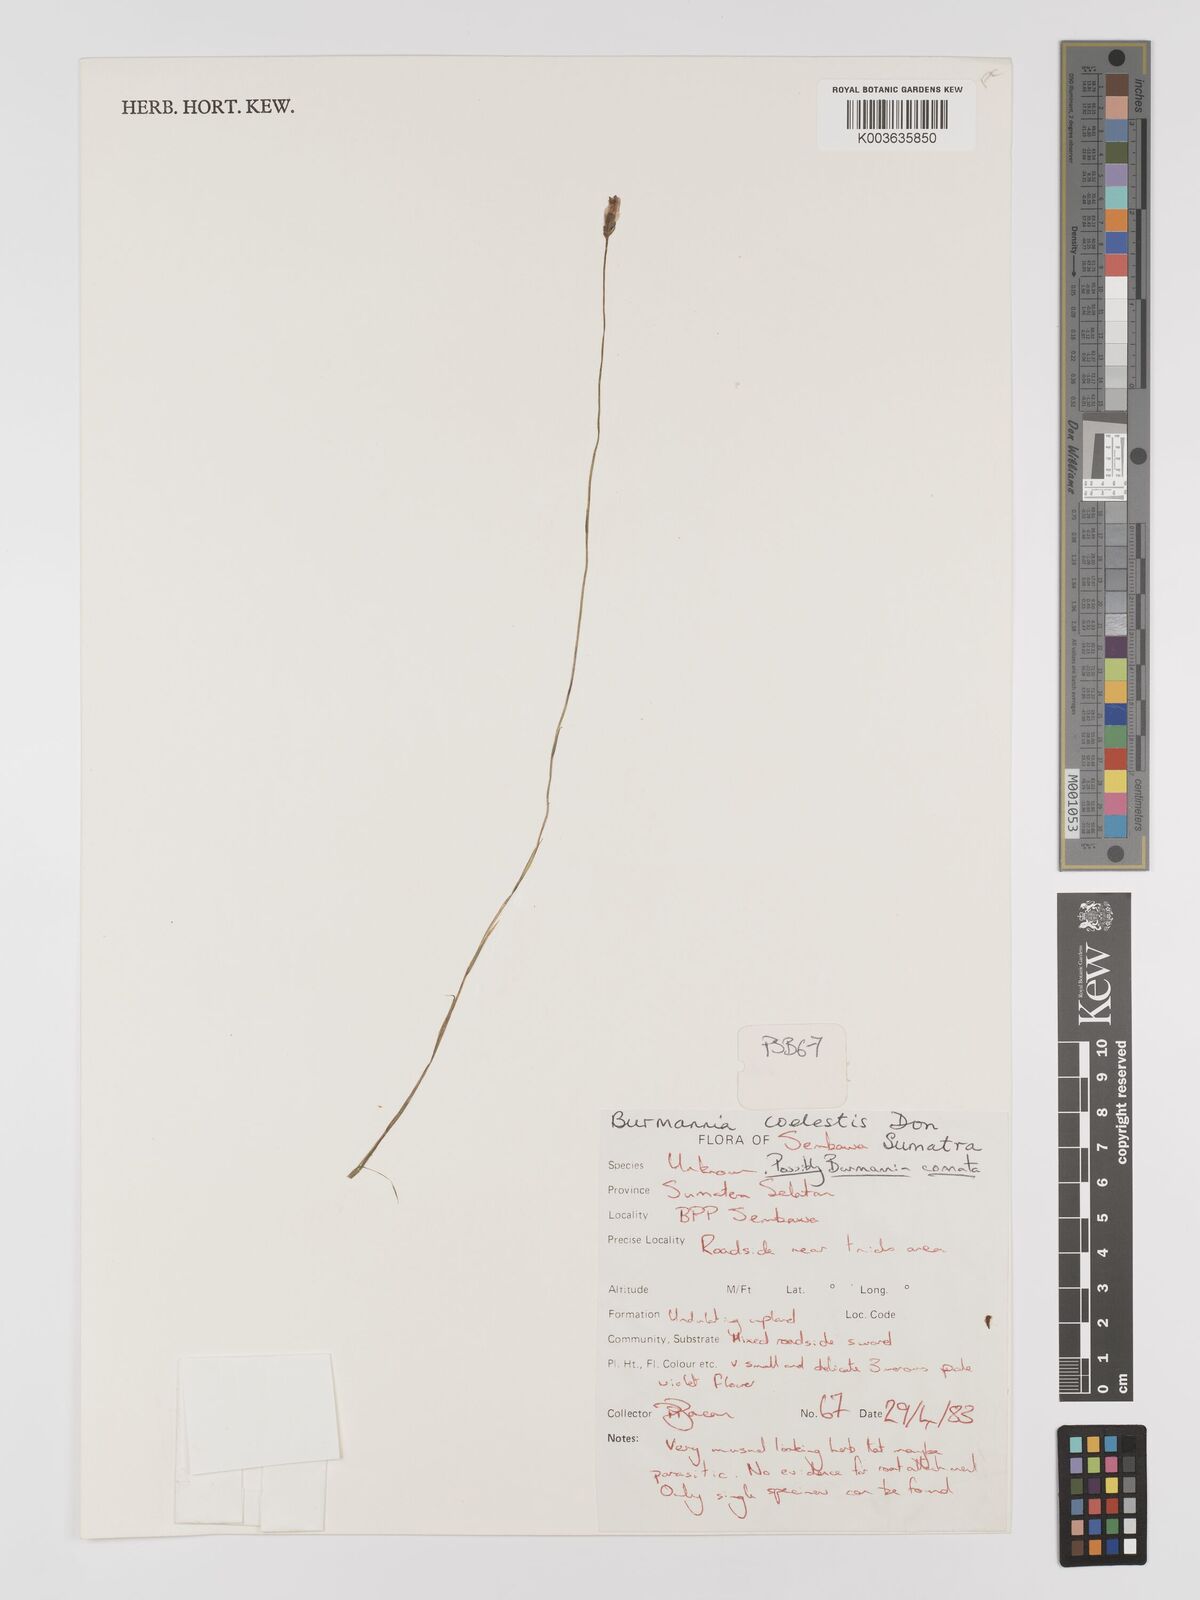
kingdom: Plantae
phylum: Tracheophyta
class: Liliopsida
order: Dioscoreales
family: Burmanniaceae
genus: Burmannia
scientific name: Burmannia coelestis
